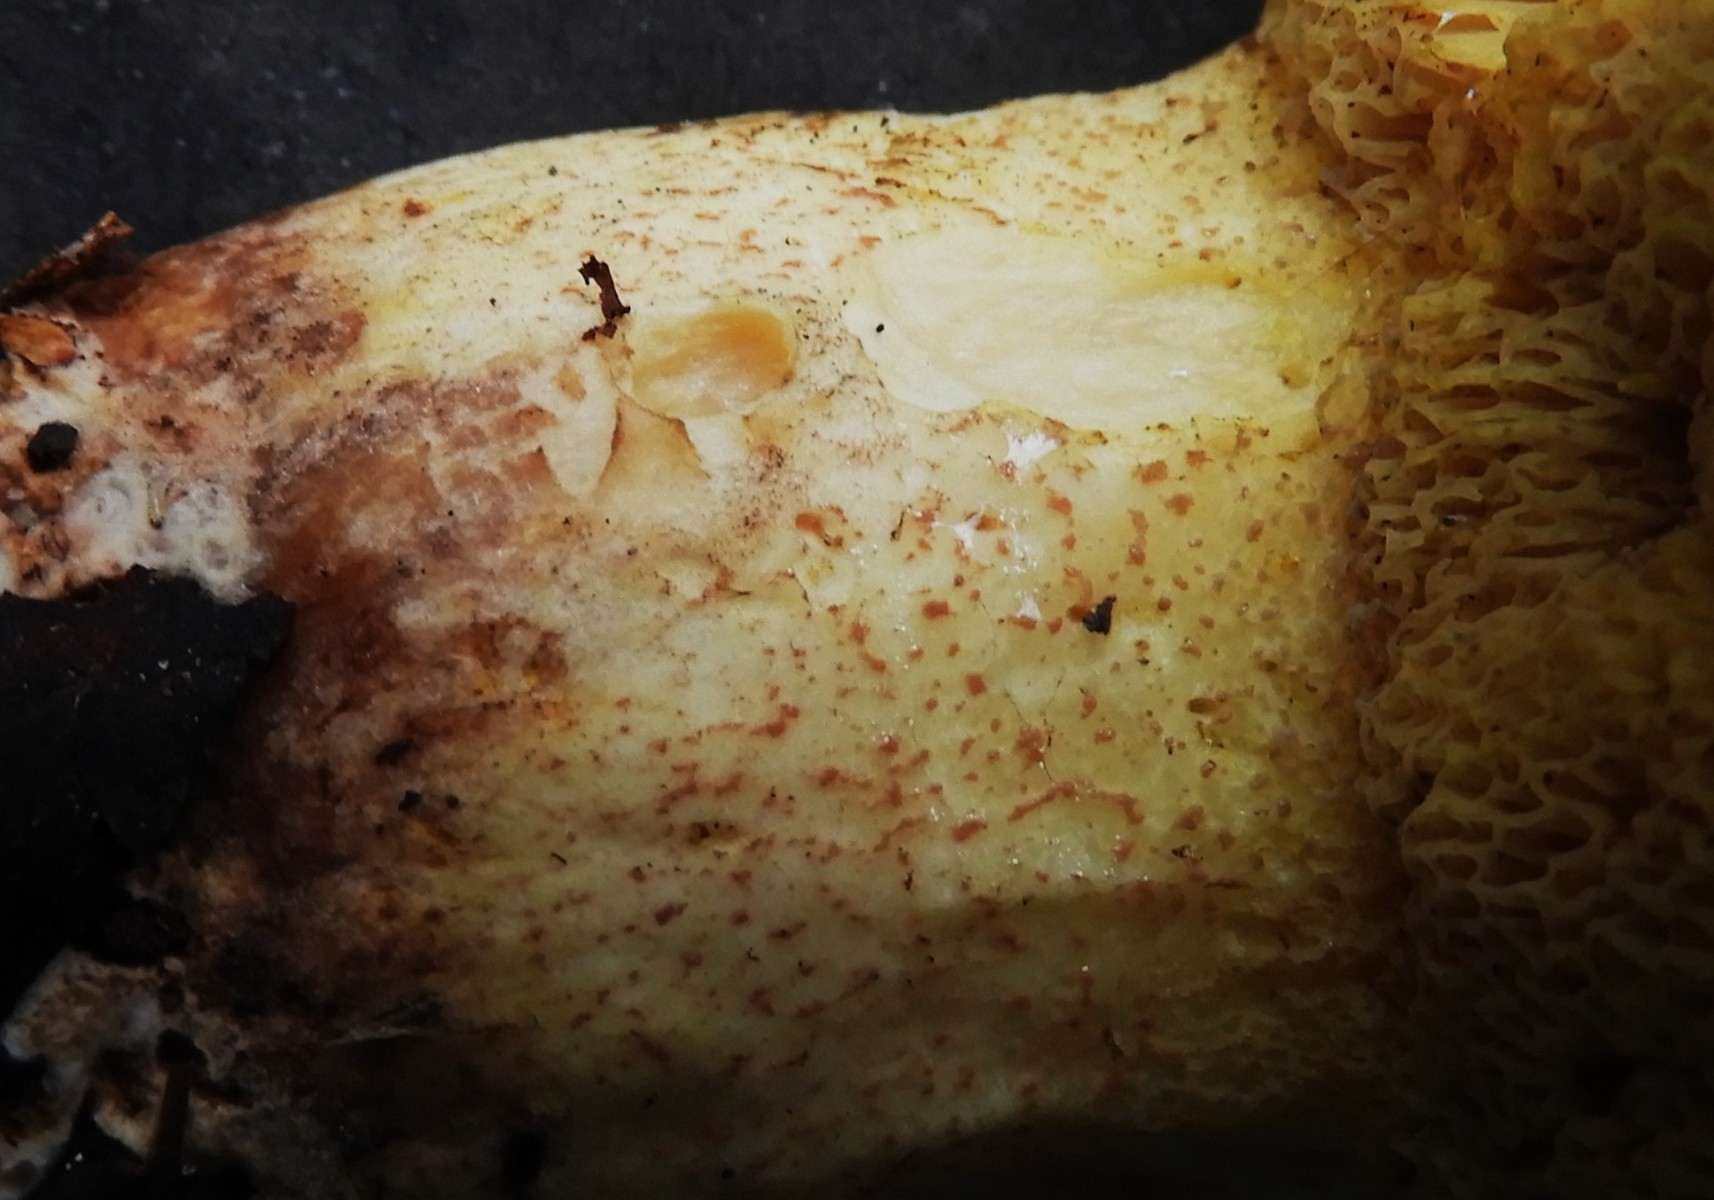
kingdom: Fungi
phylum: Basidiomycota
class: Agaricomycetes
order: Boletales
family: Suillaceae
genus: Suillus
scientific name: Suillus granulatus
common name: kornet slimrørhat
